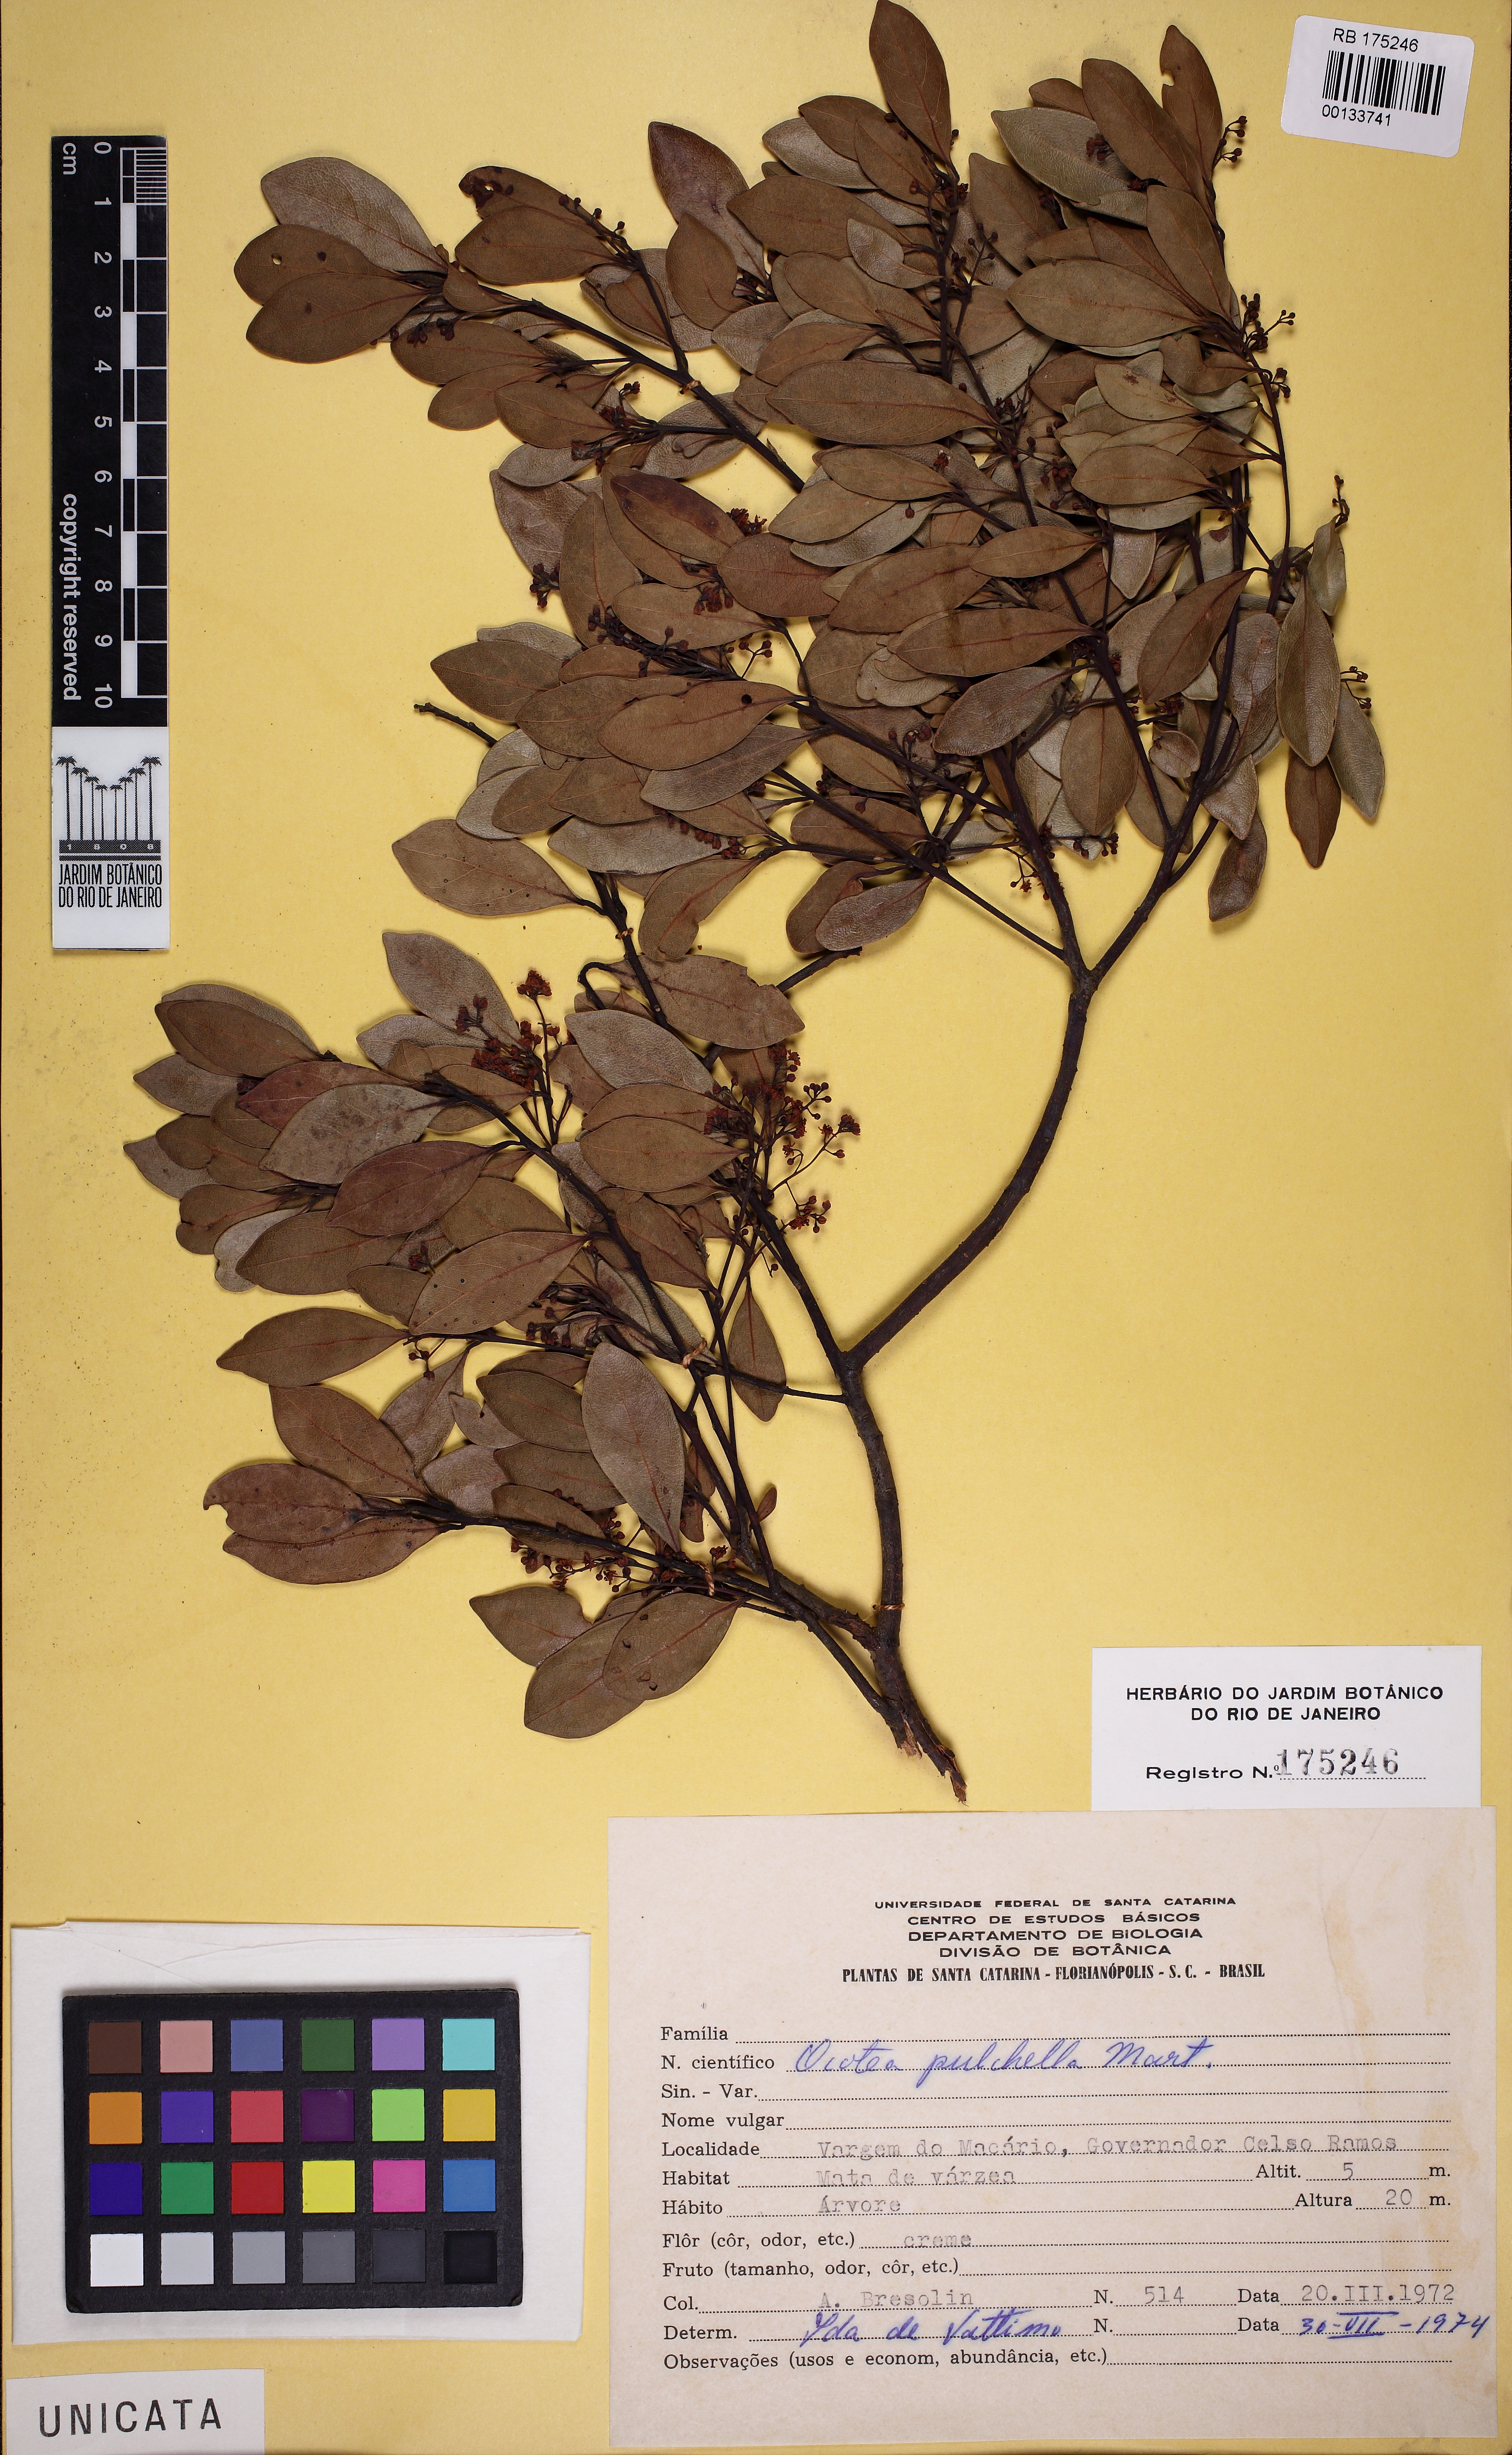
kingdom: Plantae
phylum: Tracheophyta
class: Magnoliopsida
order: Laurales
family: Lauraceae
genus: Mespilodaphne
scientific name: Mespilodaphne pulchella
